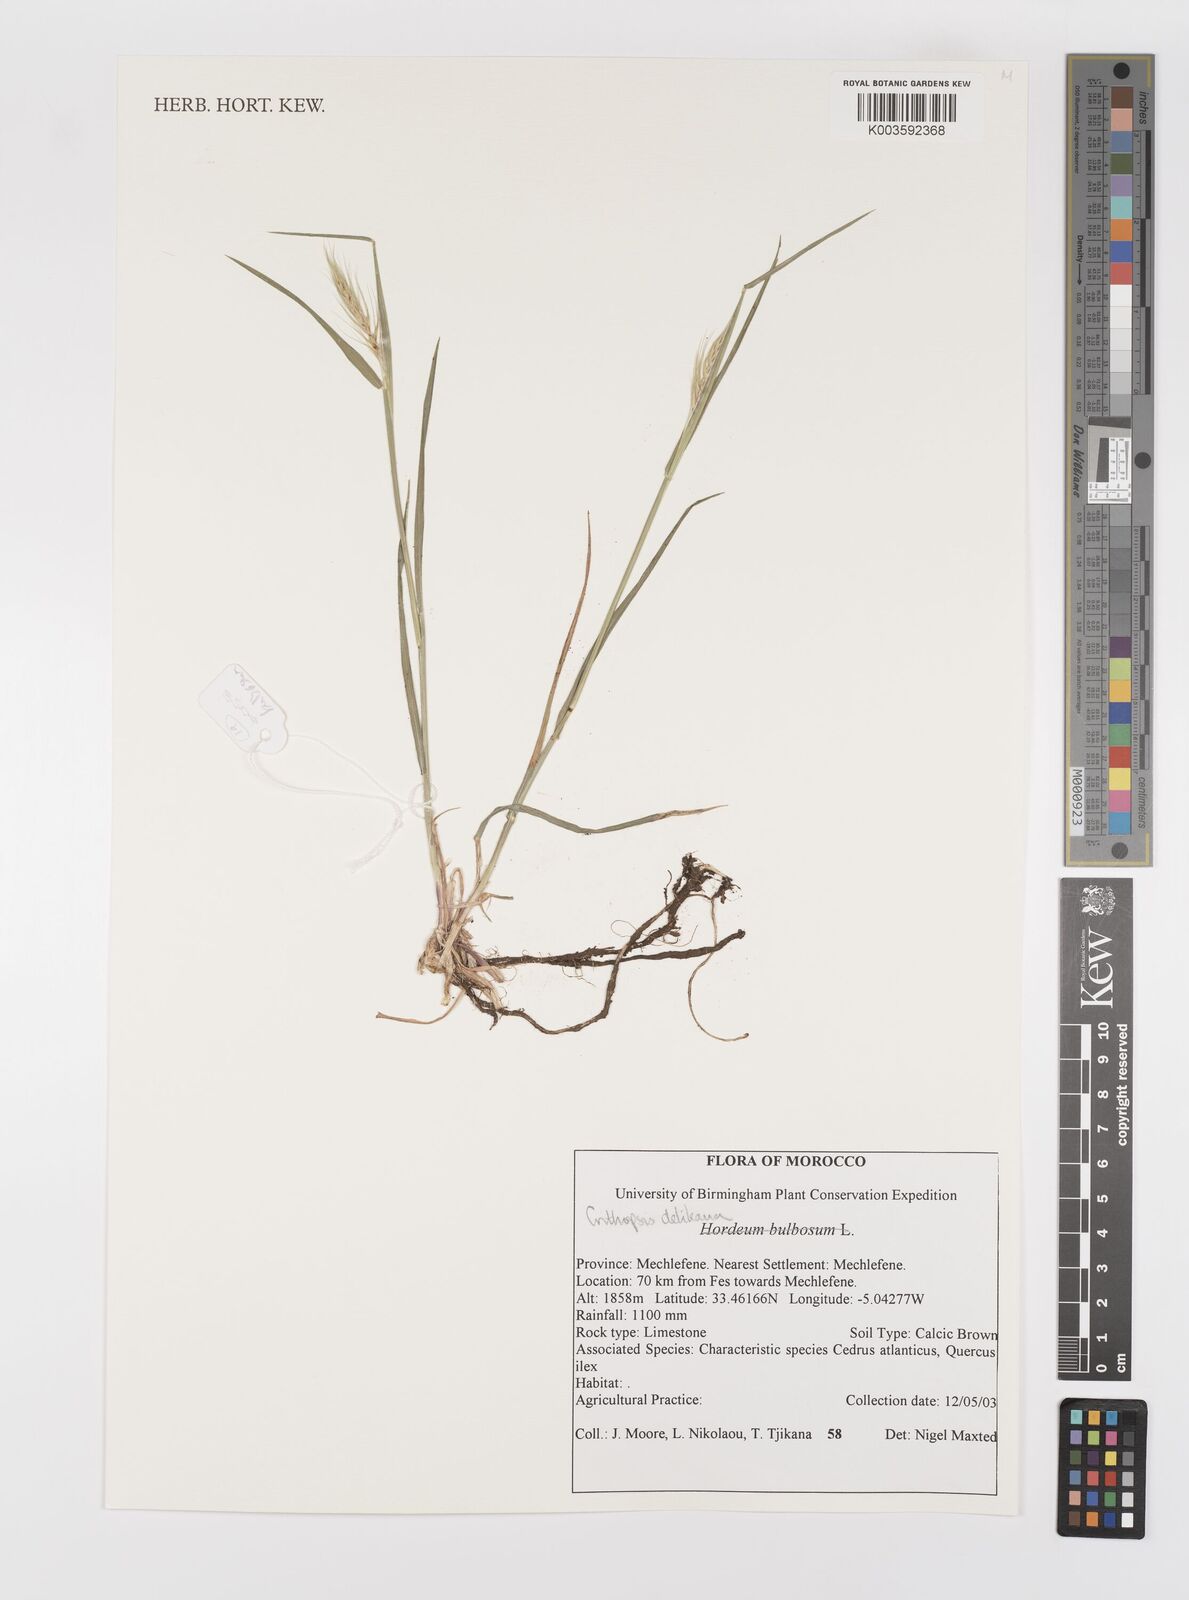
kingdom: Plantae
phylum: Tracheophyta
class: Liliopsida
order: Poales
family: Poaceae
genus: Crithopsis
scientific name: Crithopsis delileana
